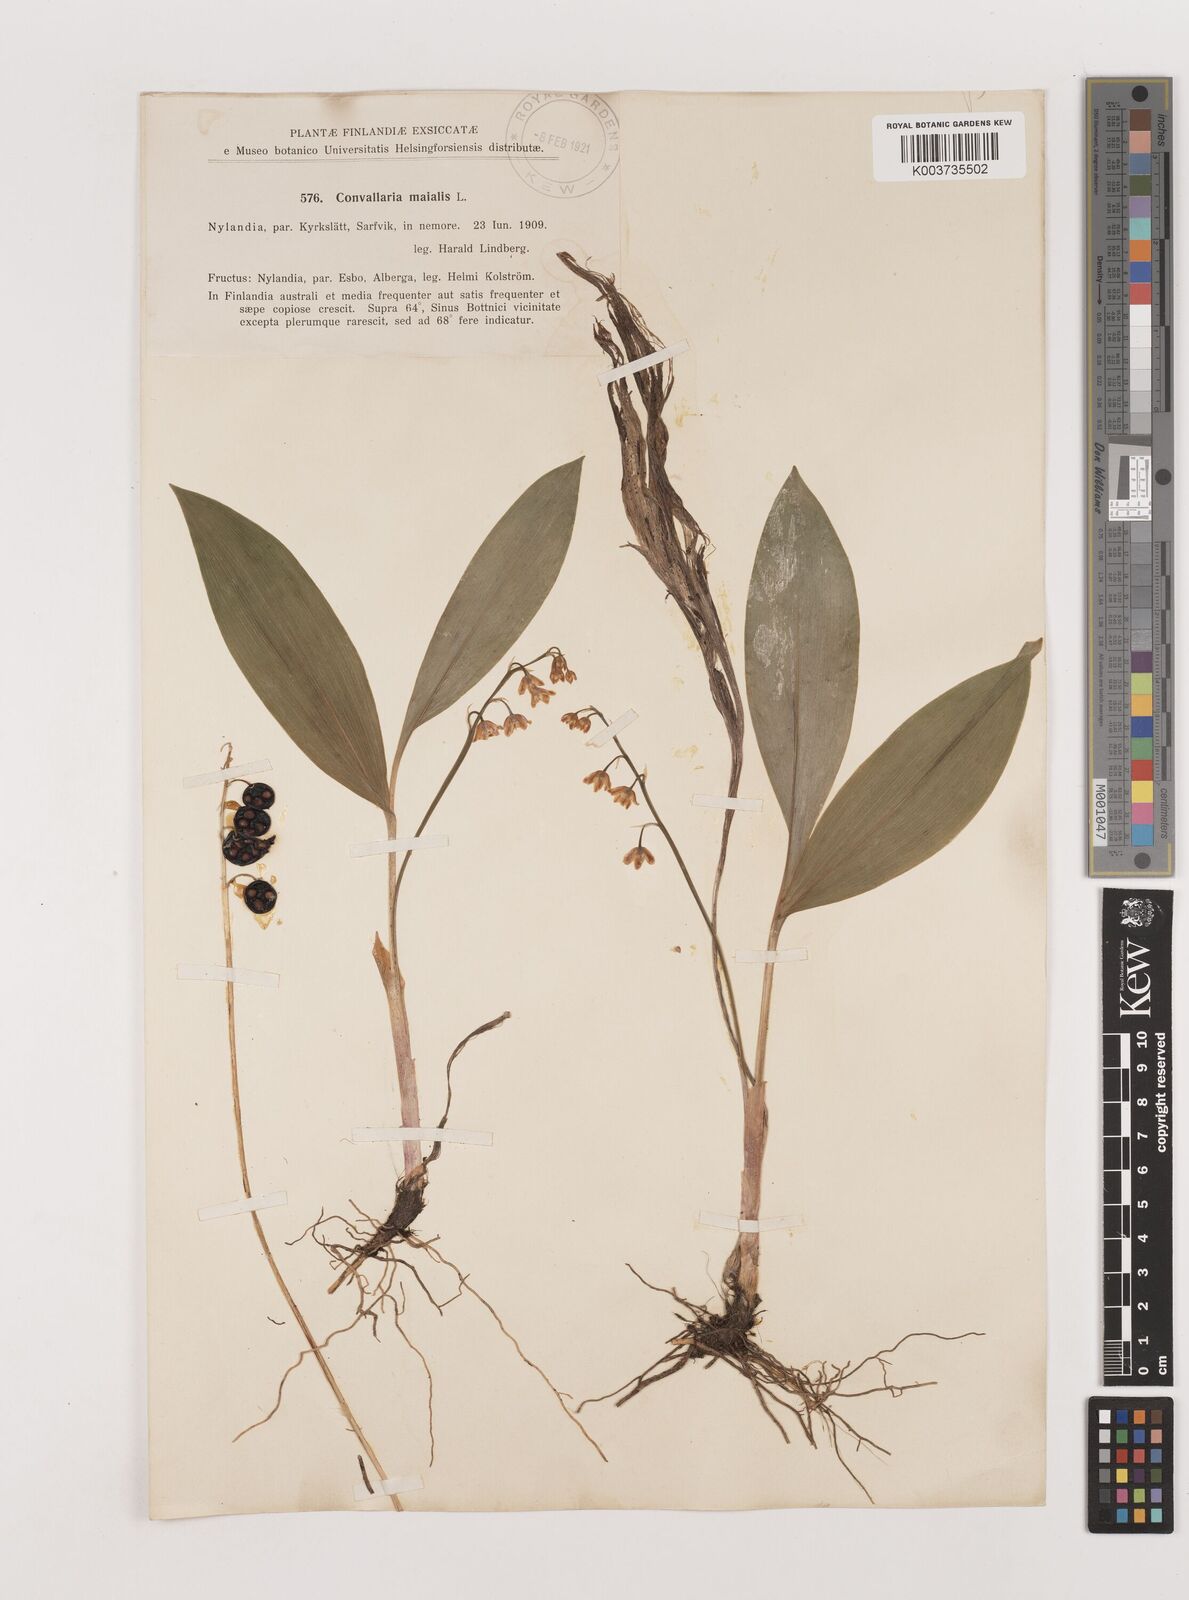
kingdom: Plantae
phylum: Tracheophyta
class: Liliopsida
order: Asparagales
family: Asparagaceae
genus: Convallaria
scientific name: Convallaria majalis
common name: Lily-of-the-valley
